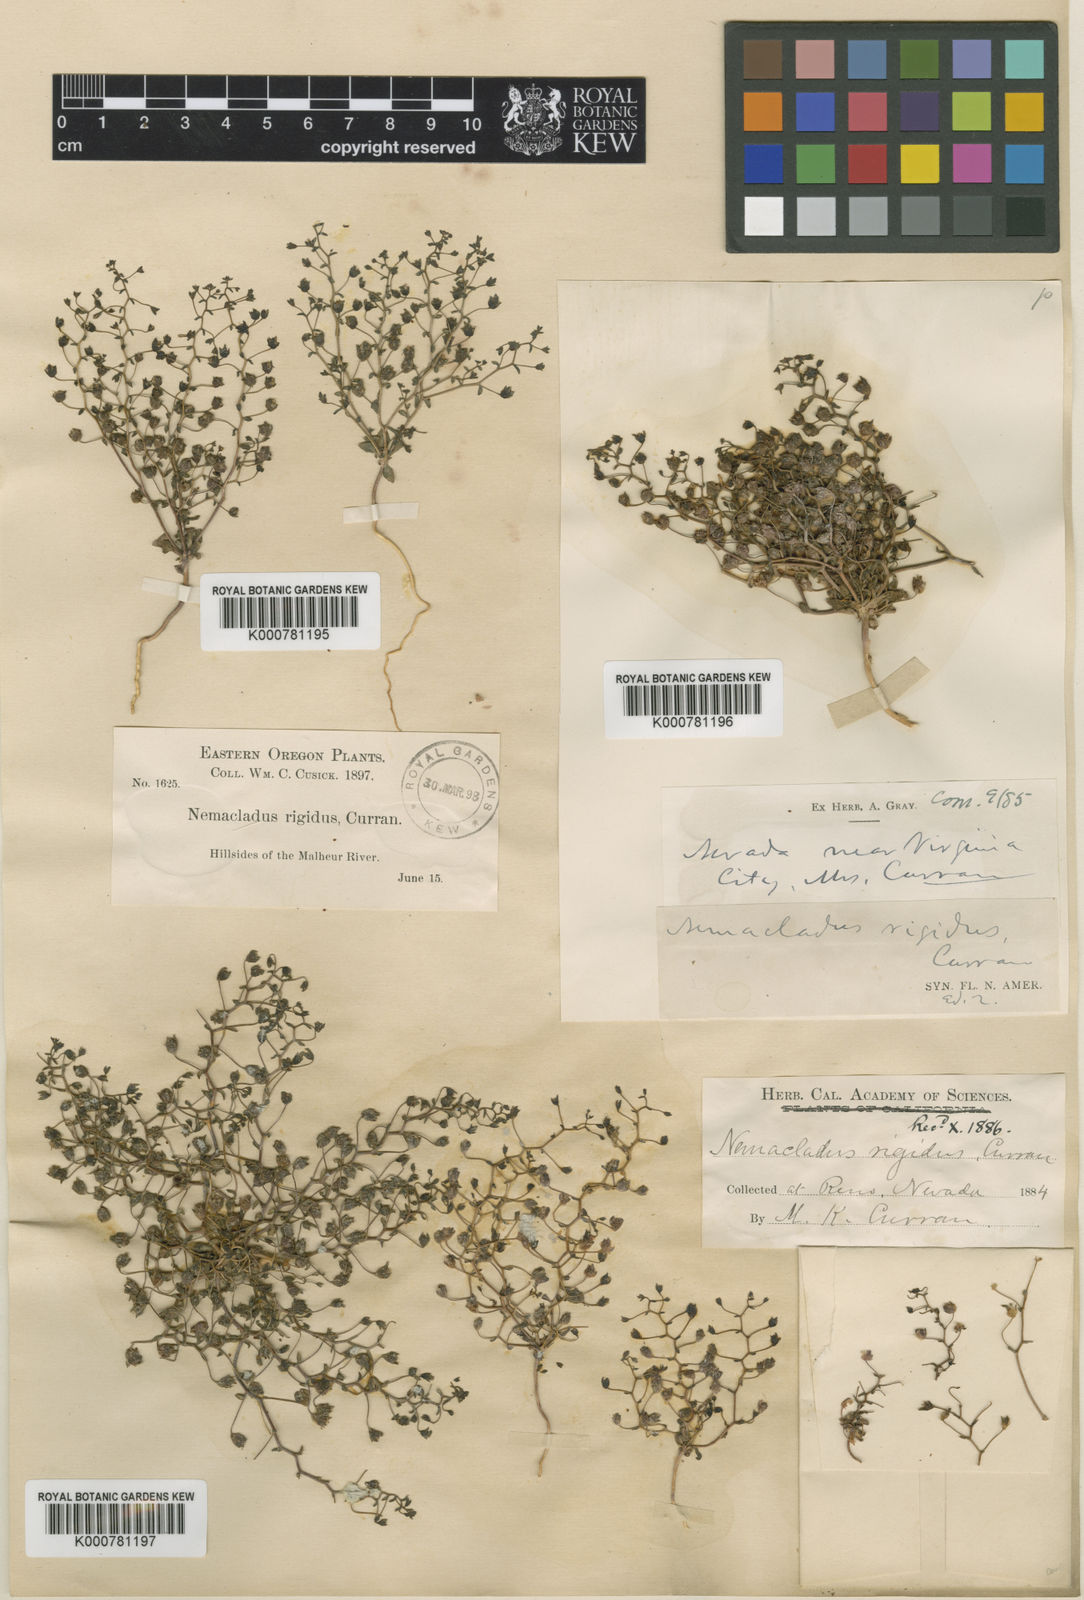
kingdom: Plantae
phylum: Tracheophyta
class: Magnoliopsida
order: Asterales
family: Campanulaceae
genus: Nemacladus
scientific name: Nemacladus rigidus
